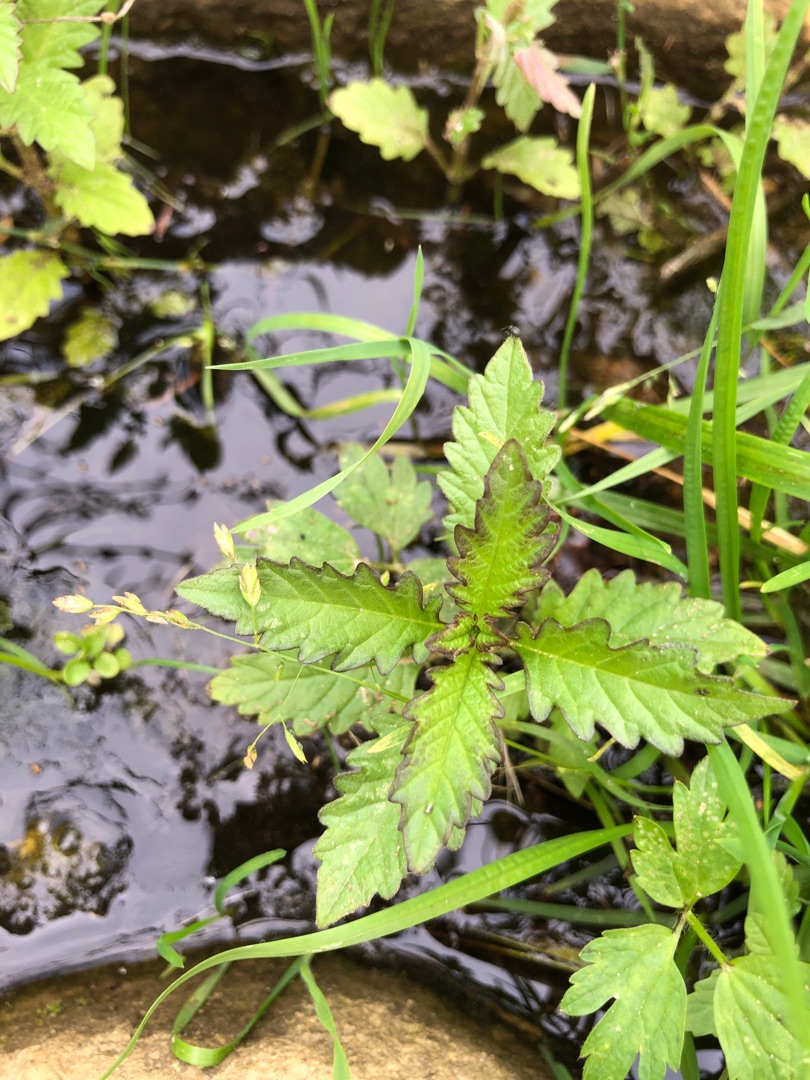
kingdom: Plantae
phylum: Tracheophyta
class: Magnoliopsida
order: Lamiales
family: Lamiaceae
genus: Lycopus
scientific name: Lycopus europaeus
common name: Sværtevæld
